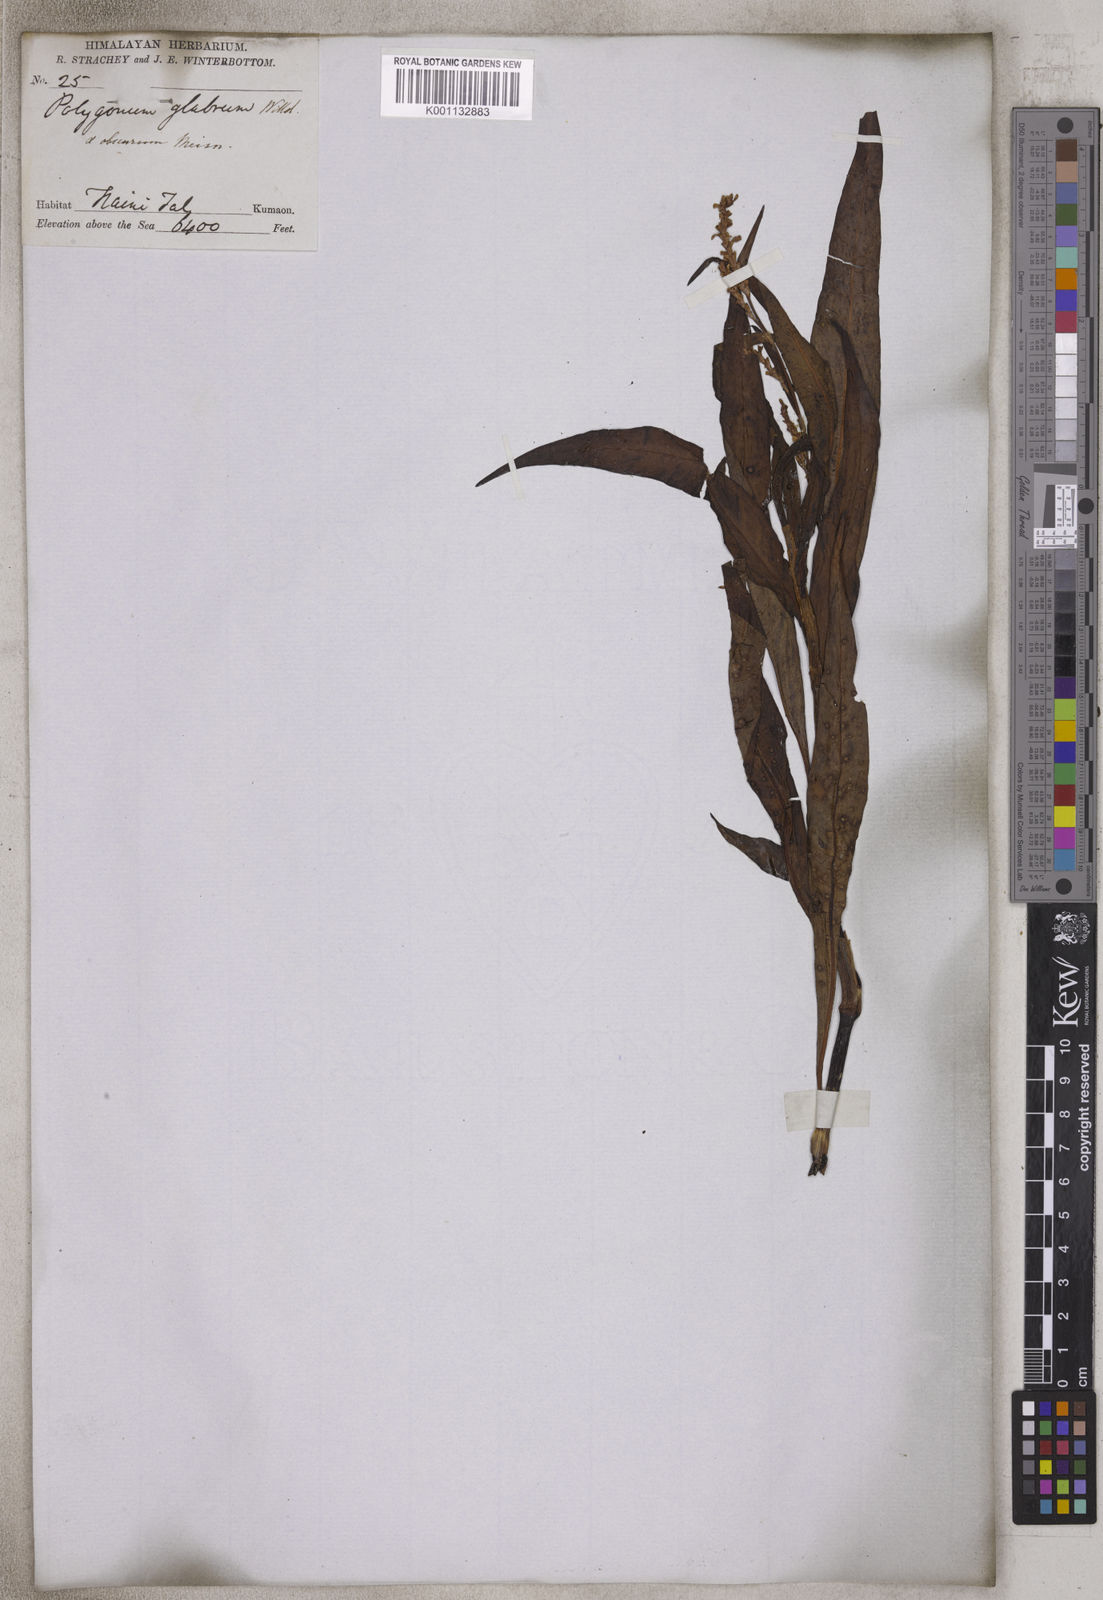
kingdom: Plantae
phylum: Tracheophyta
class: Magnoliopsida
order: Caryophyllales
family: Polygonaceae
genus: Persicaria
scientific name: Persicaria glabra
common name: Denseflower knotweed
